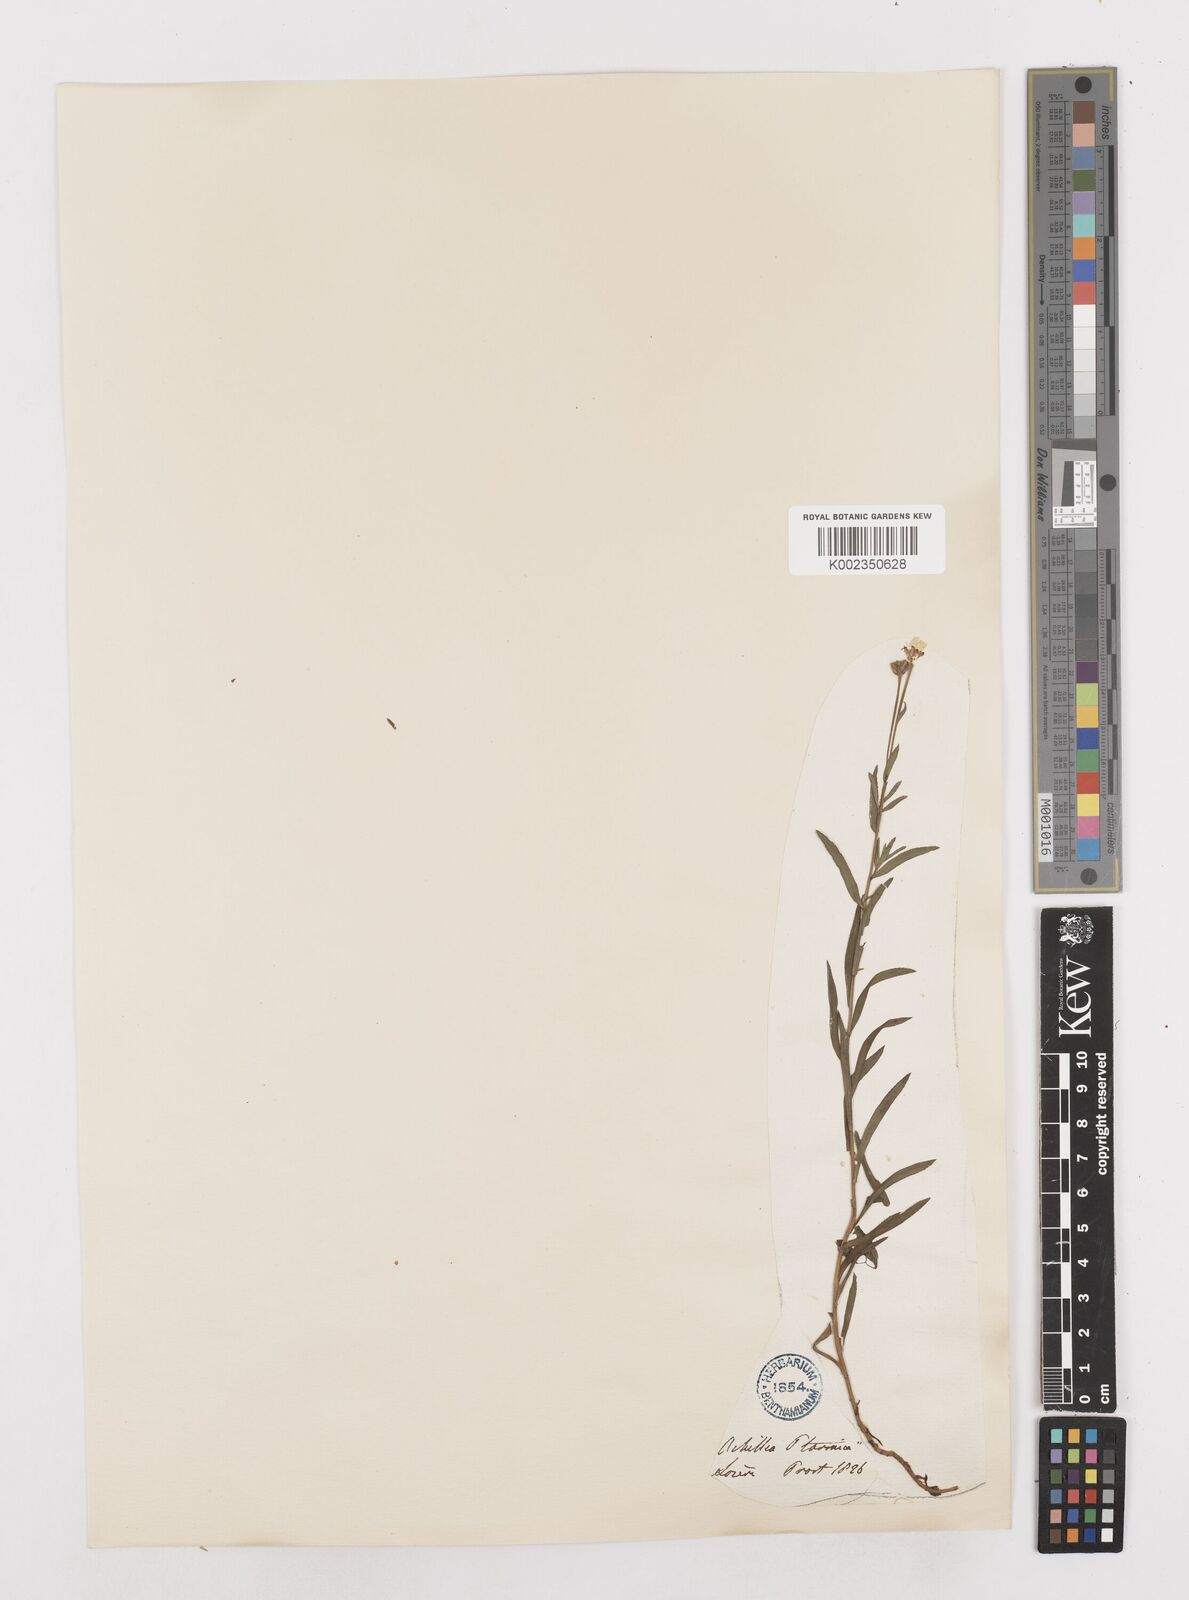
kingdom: Plantae
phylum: Tracheophyta
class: Magnoliopsida
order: Asterales
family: Asteraceae
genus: Achillea
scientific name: Achillea ptarmica
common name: Sneezeweed
